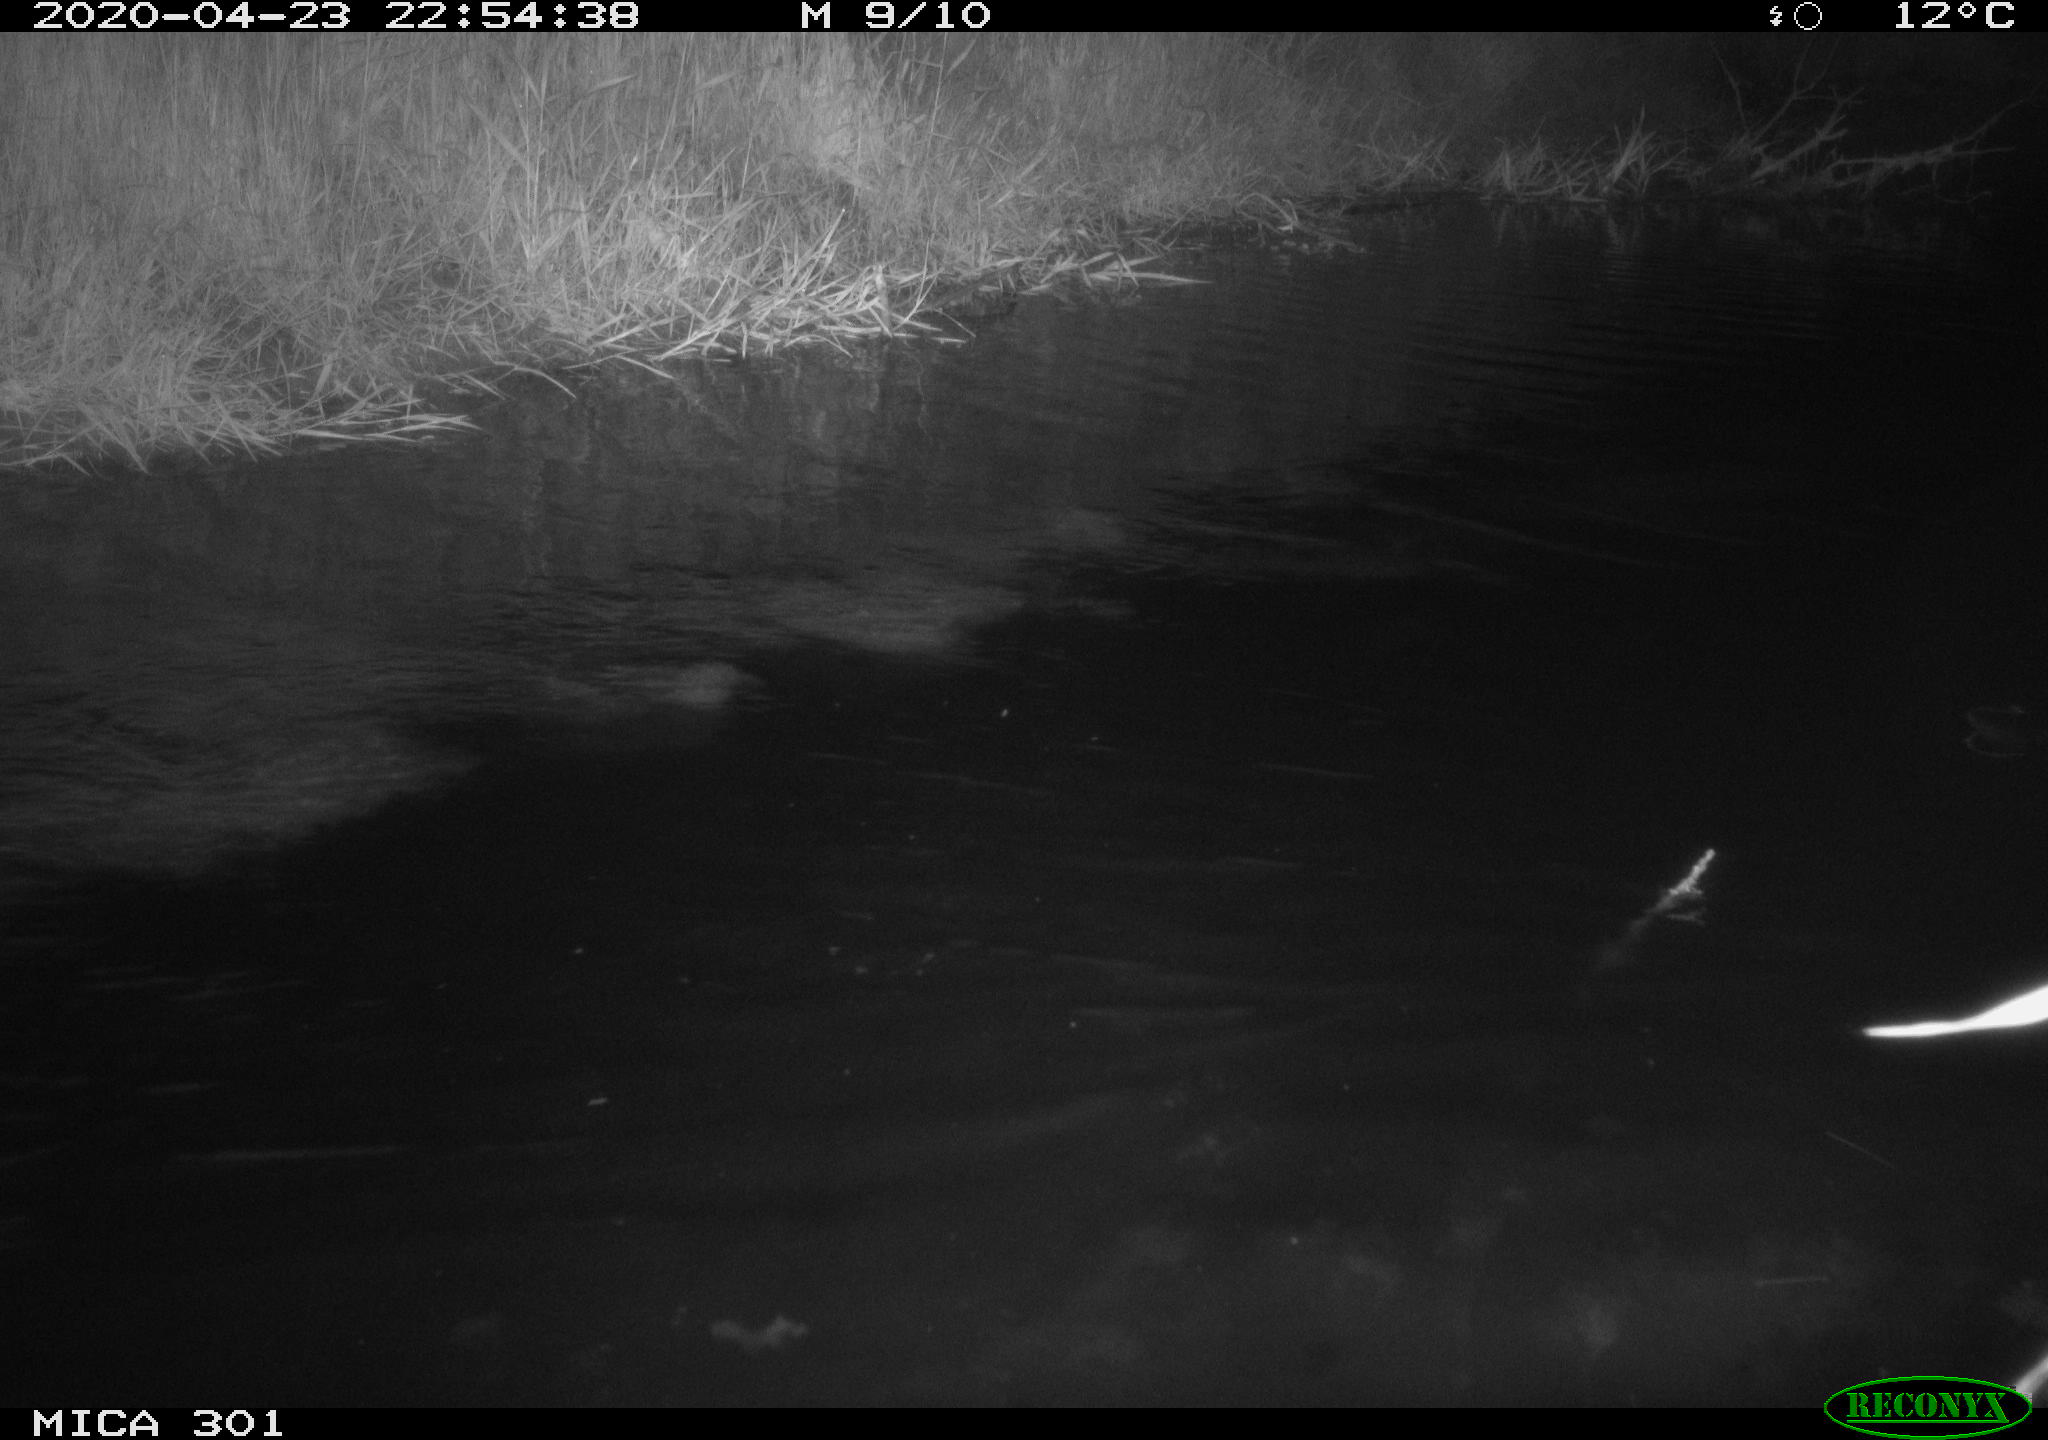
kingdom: Animalia
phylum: Chordata
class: Mammalia
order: Rodentia
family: Castoridae
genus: Castor
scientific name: Castor fiber
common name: Eurasian beaver
